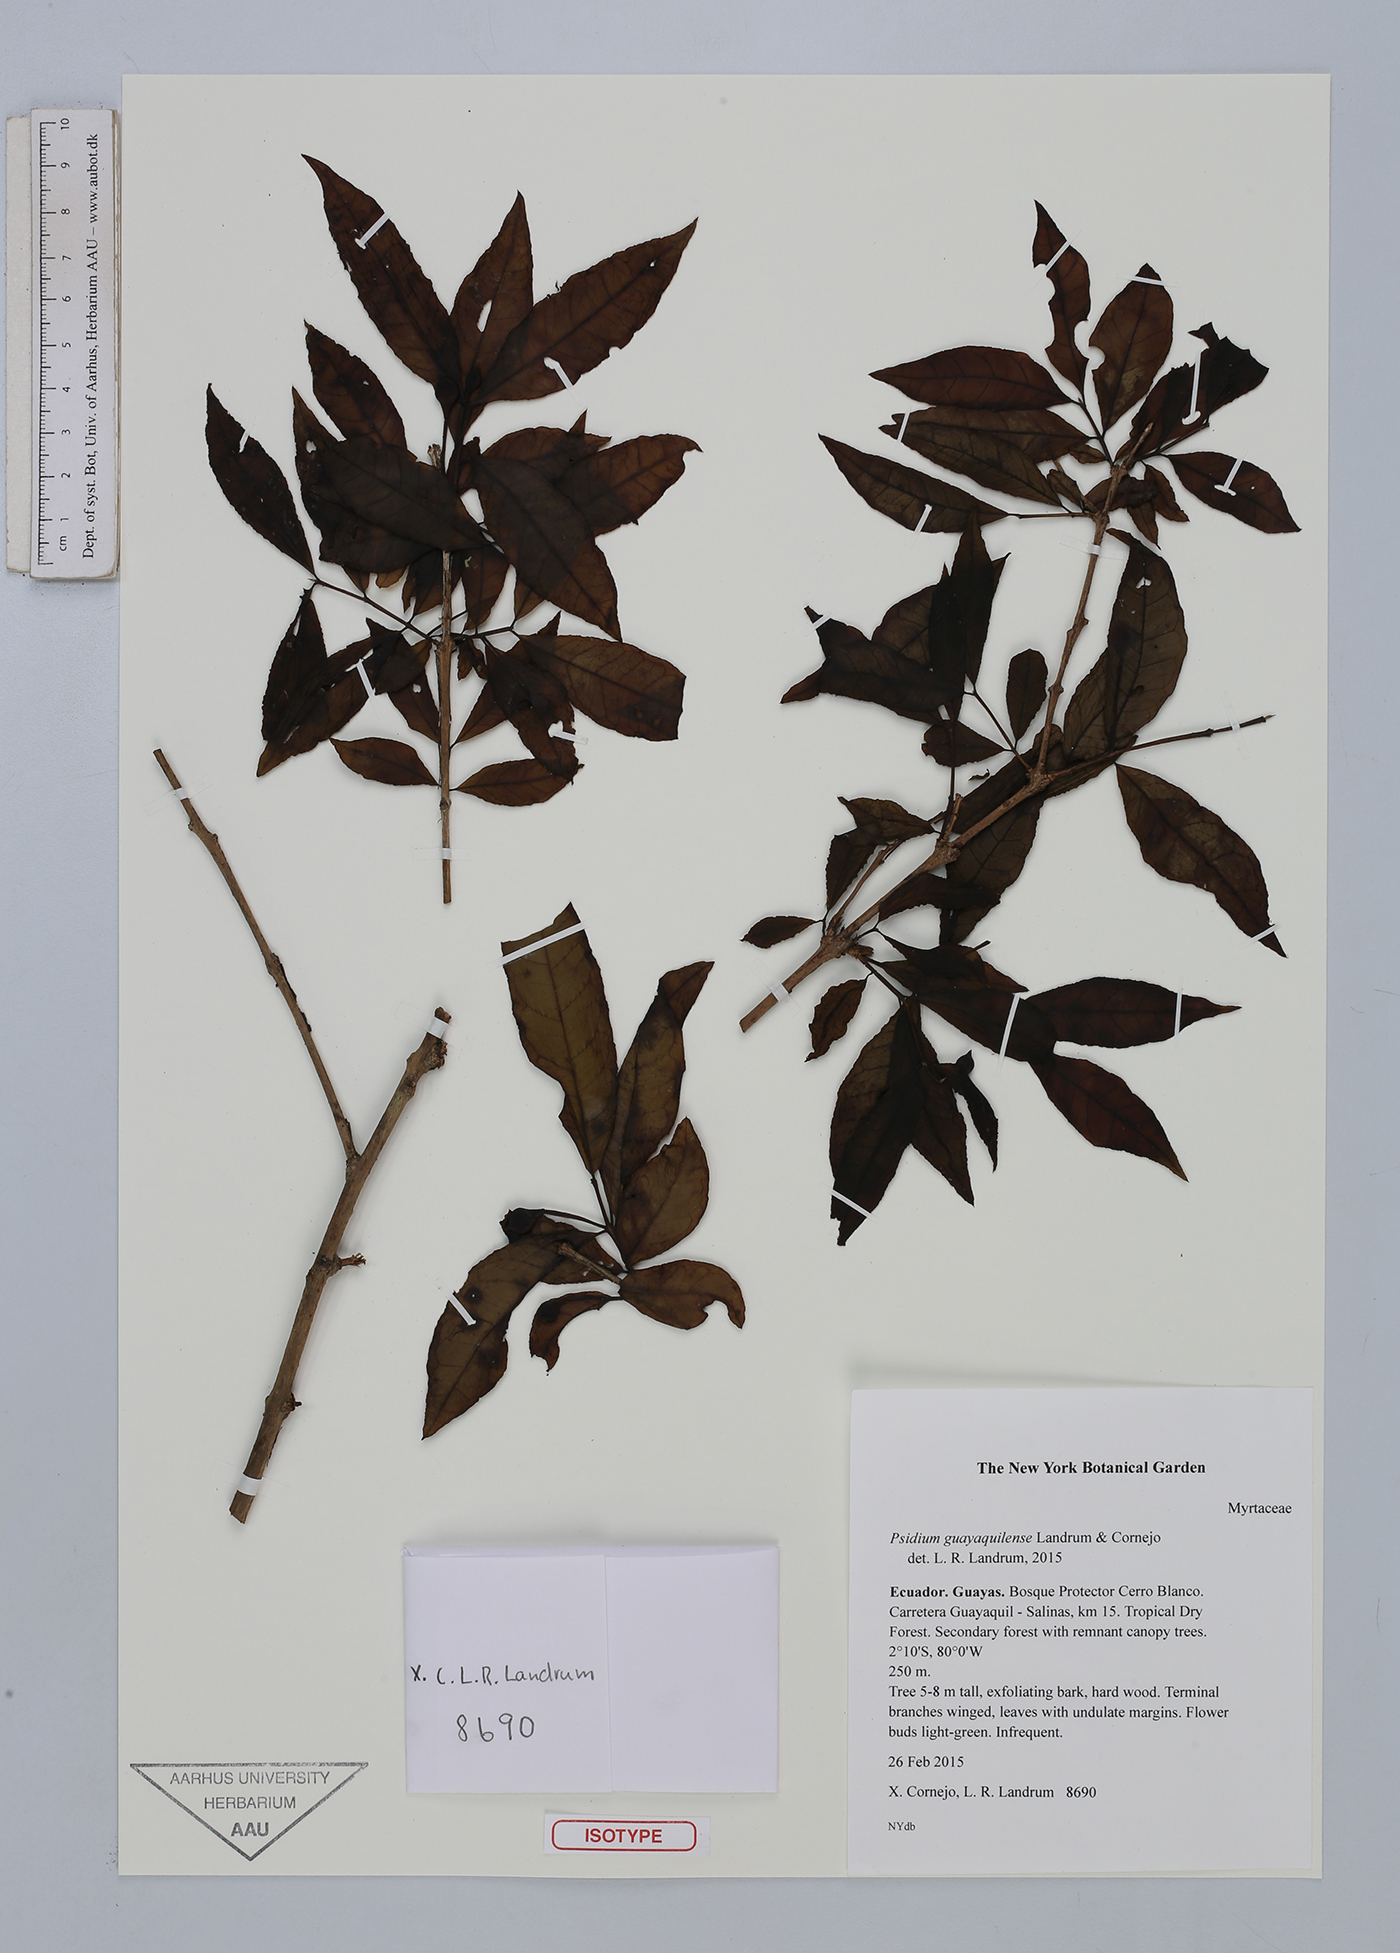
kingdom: Plantae
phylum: Tracheophyta
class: Magnoliopsida
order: Myrtales
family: Myrtaceae
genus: Psidium
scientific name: Psidium guayaquilense
